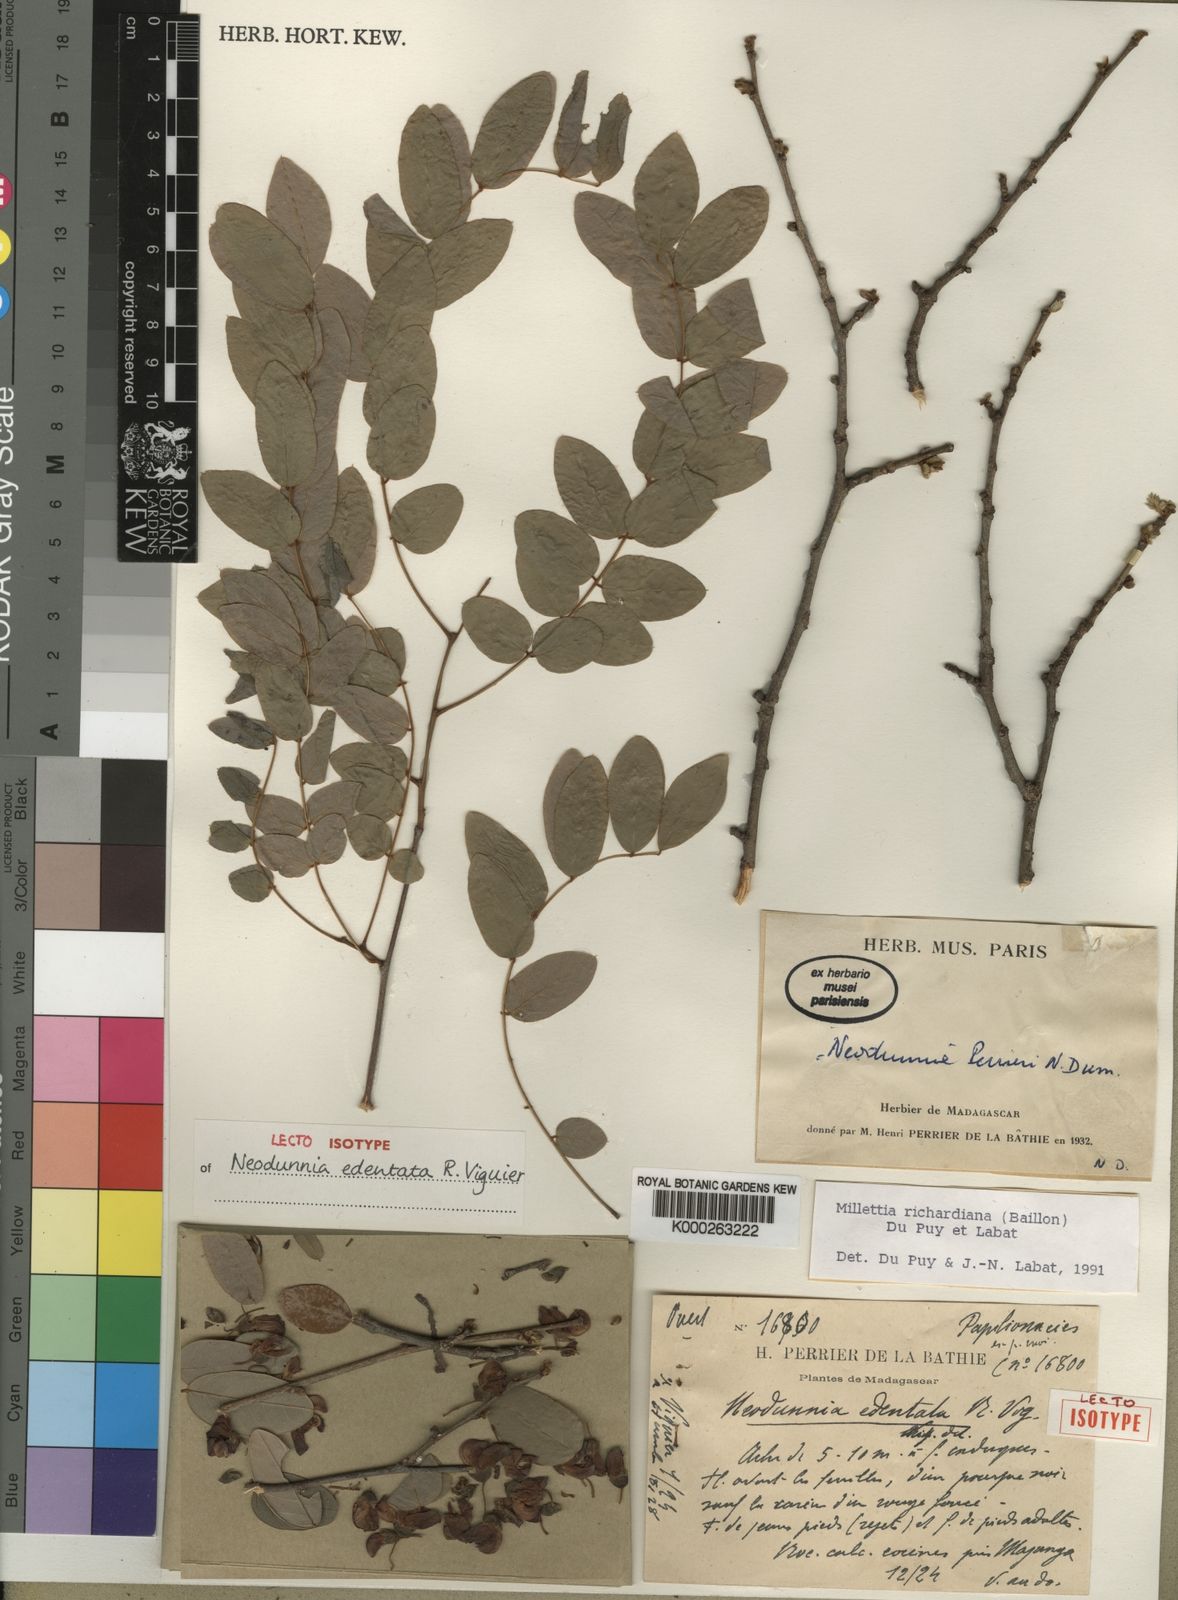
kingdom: Plantae
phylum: Tracheophyta
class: Magnoliopsida
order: Fabales
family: Fabaceae
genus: Millettia
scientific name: Millettia richardiana
